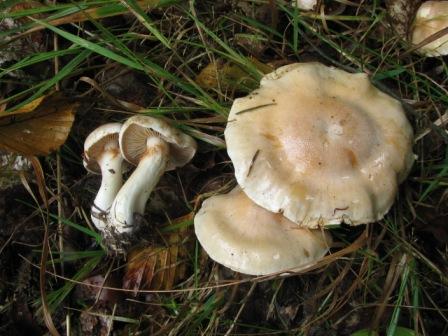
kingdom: Fungi
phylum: Basidiomycota
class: Agaricomycetes
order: Agaricales
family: Cortinariaceae
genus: Thaxterogaster
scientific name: Thaxterogaster leucoluteolus
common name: isabella slørhat
